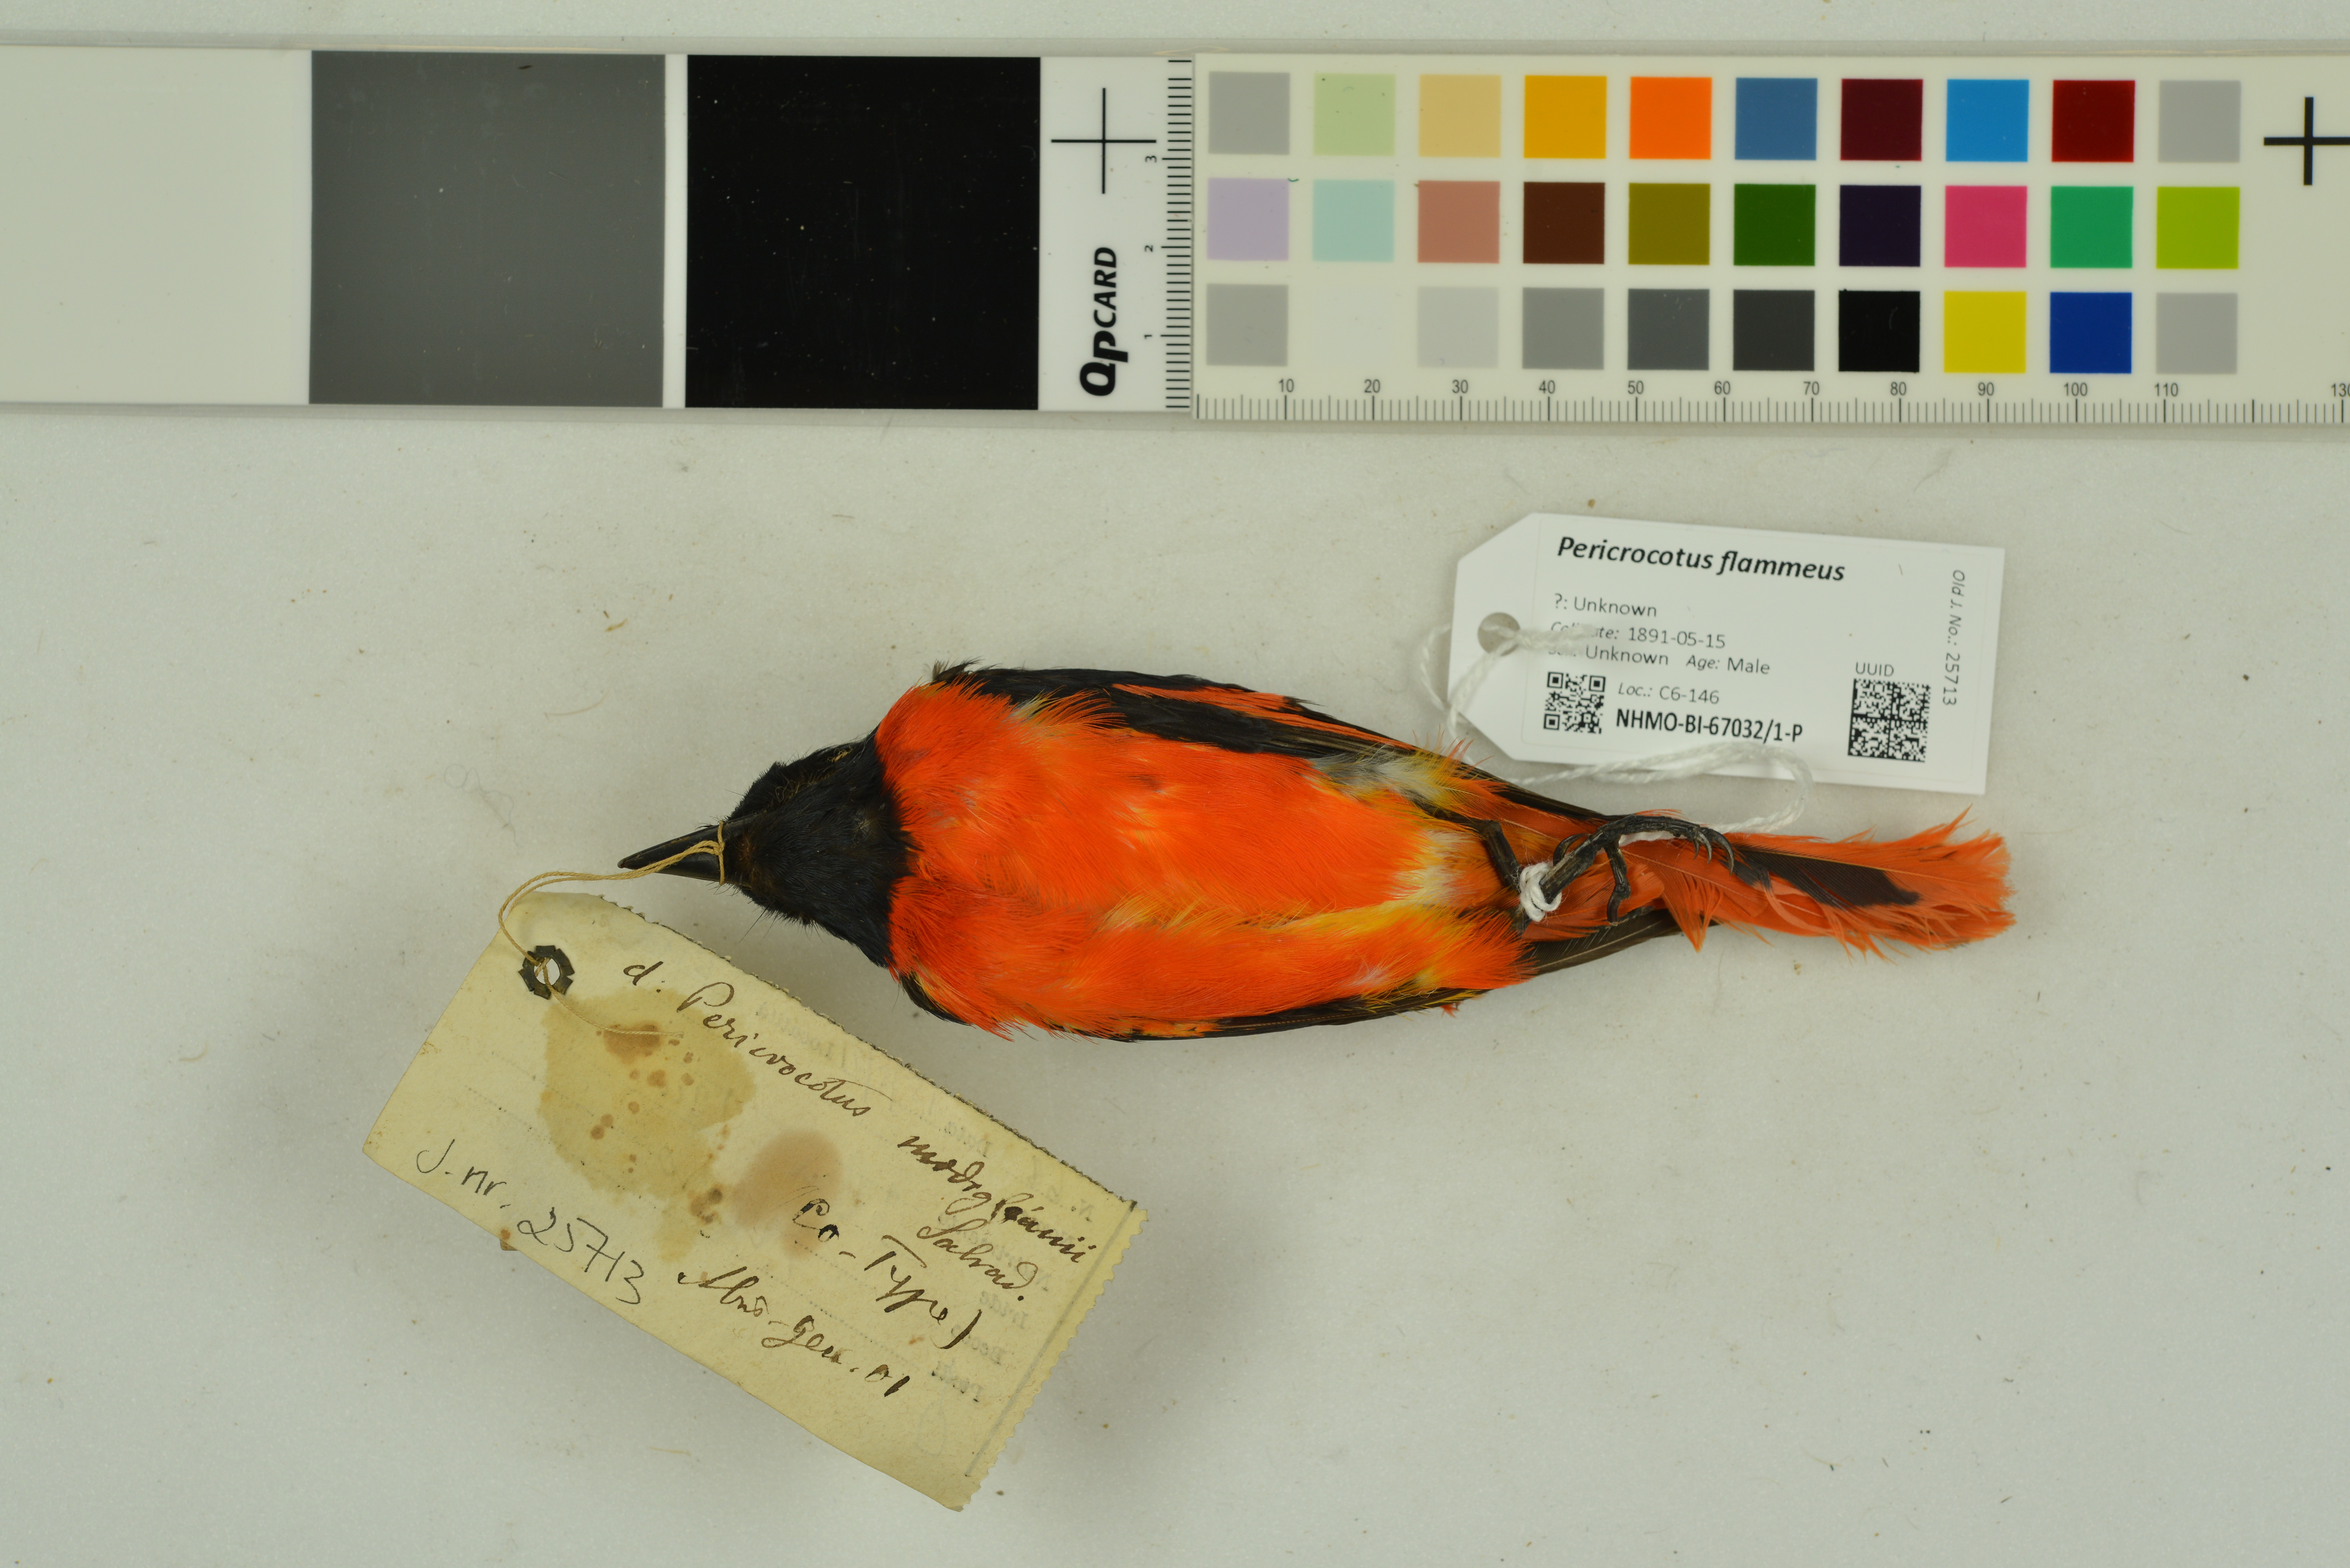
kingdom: Animalia
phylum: Chordata
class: Aves
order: Passeriformes
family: Campephagidae
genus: Pericrocotus
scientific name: Pericrocotus flammeus
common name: Orange minivet
